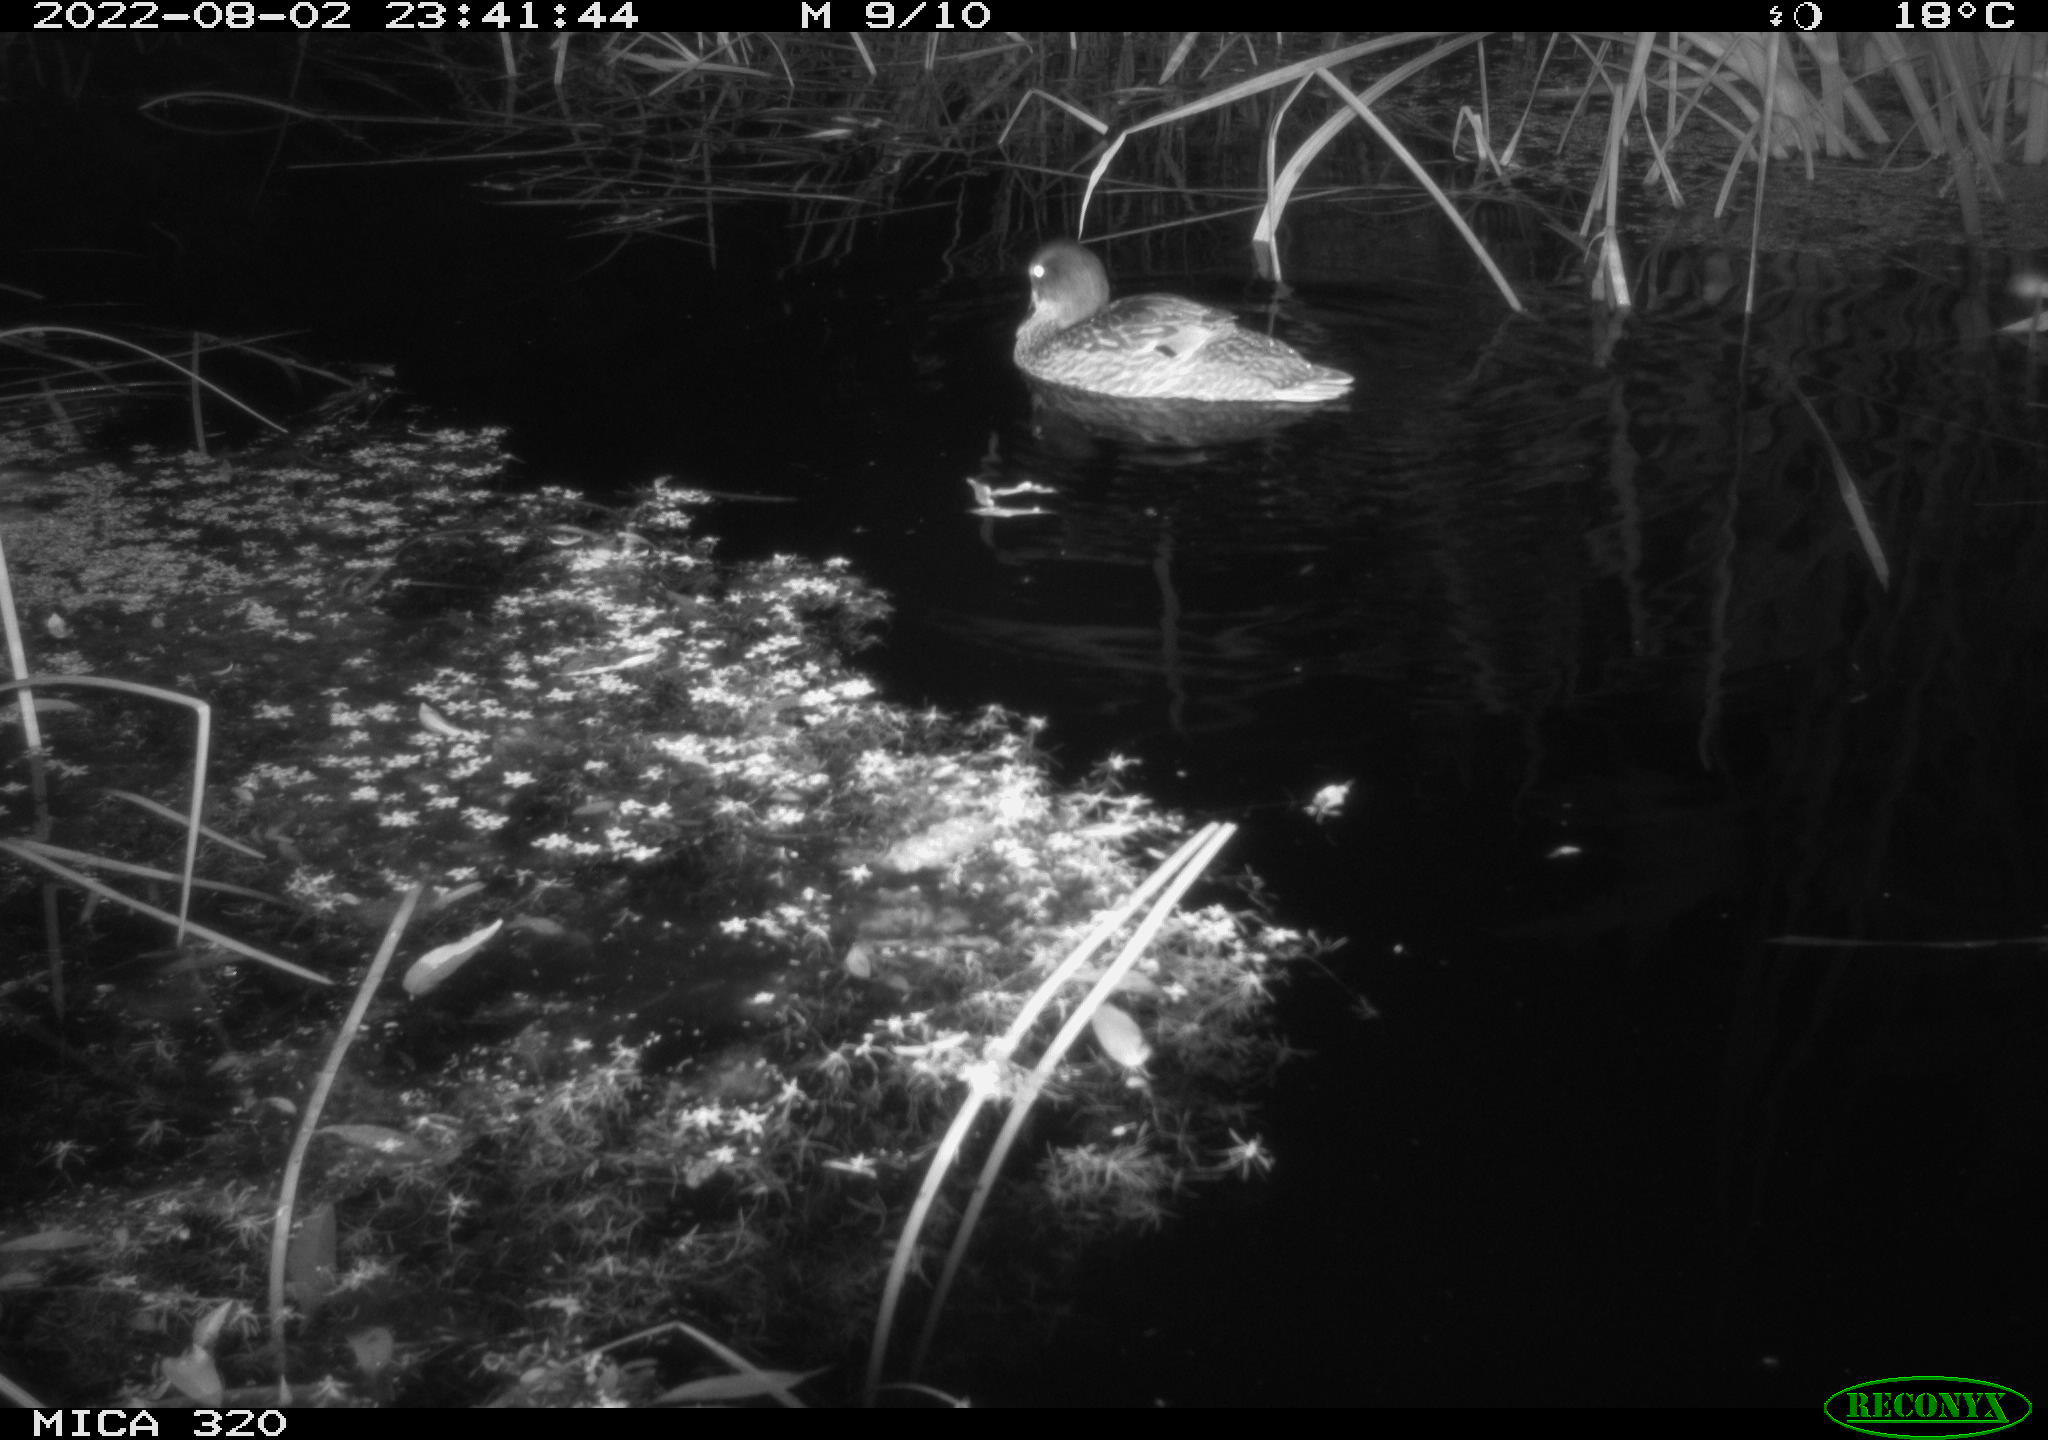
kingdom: Animalia
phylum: Chordata
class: Aves
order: Anseriformes
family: Anatidae
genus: Anas
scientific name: Anas platyrhynchos
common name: Mallard
